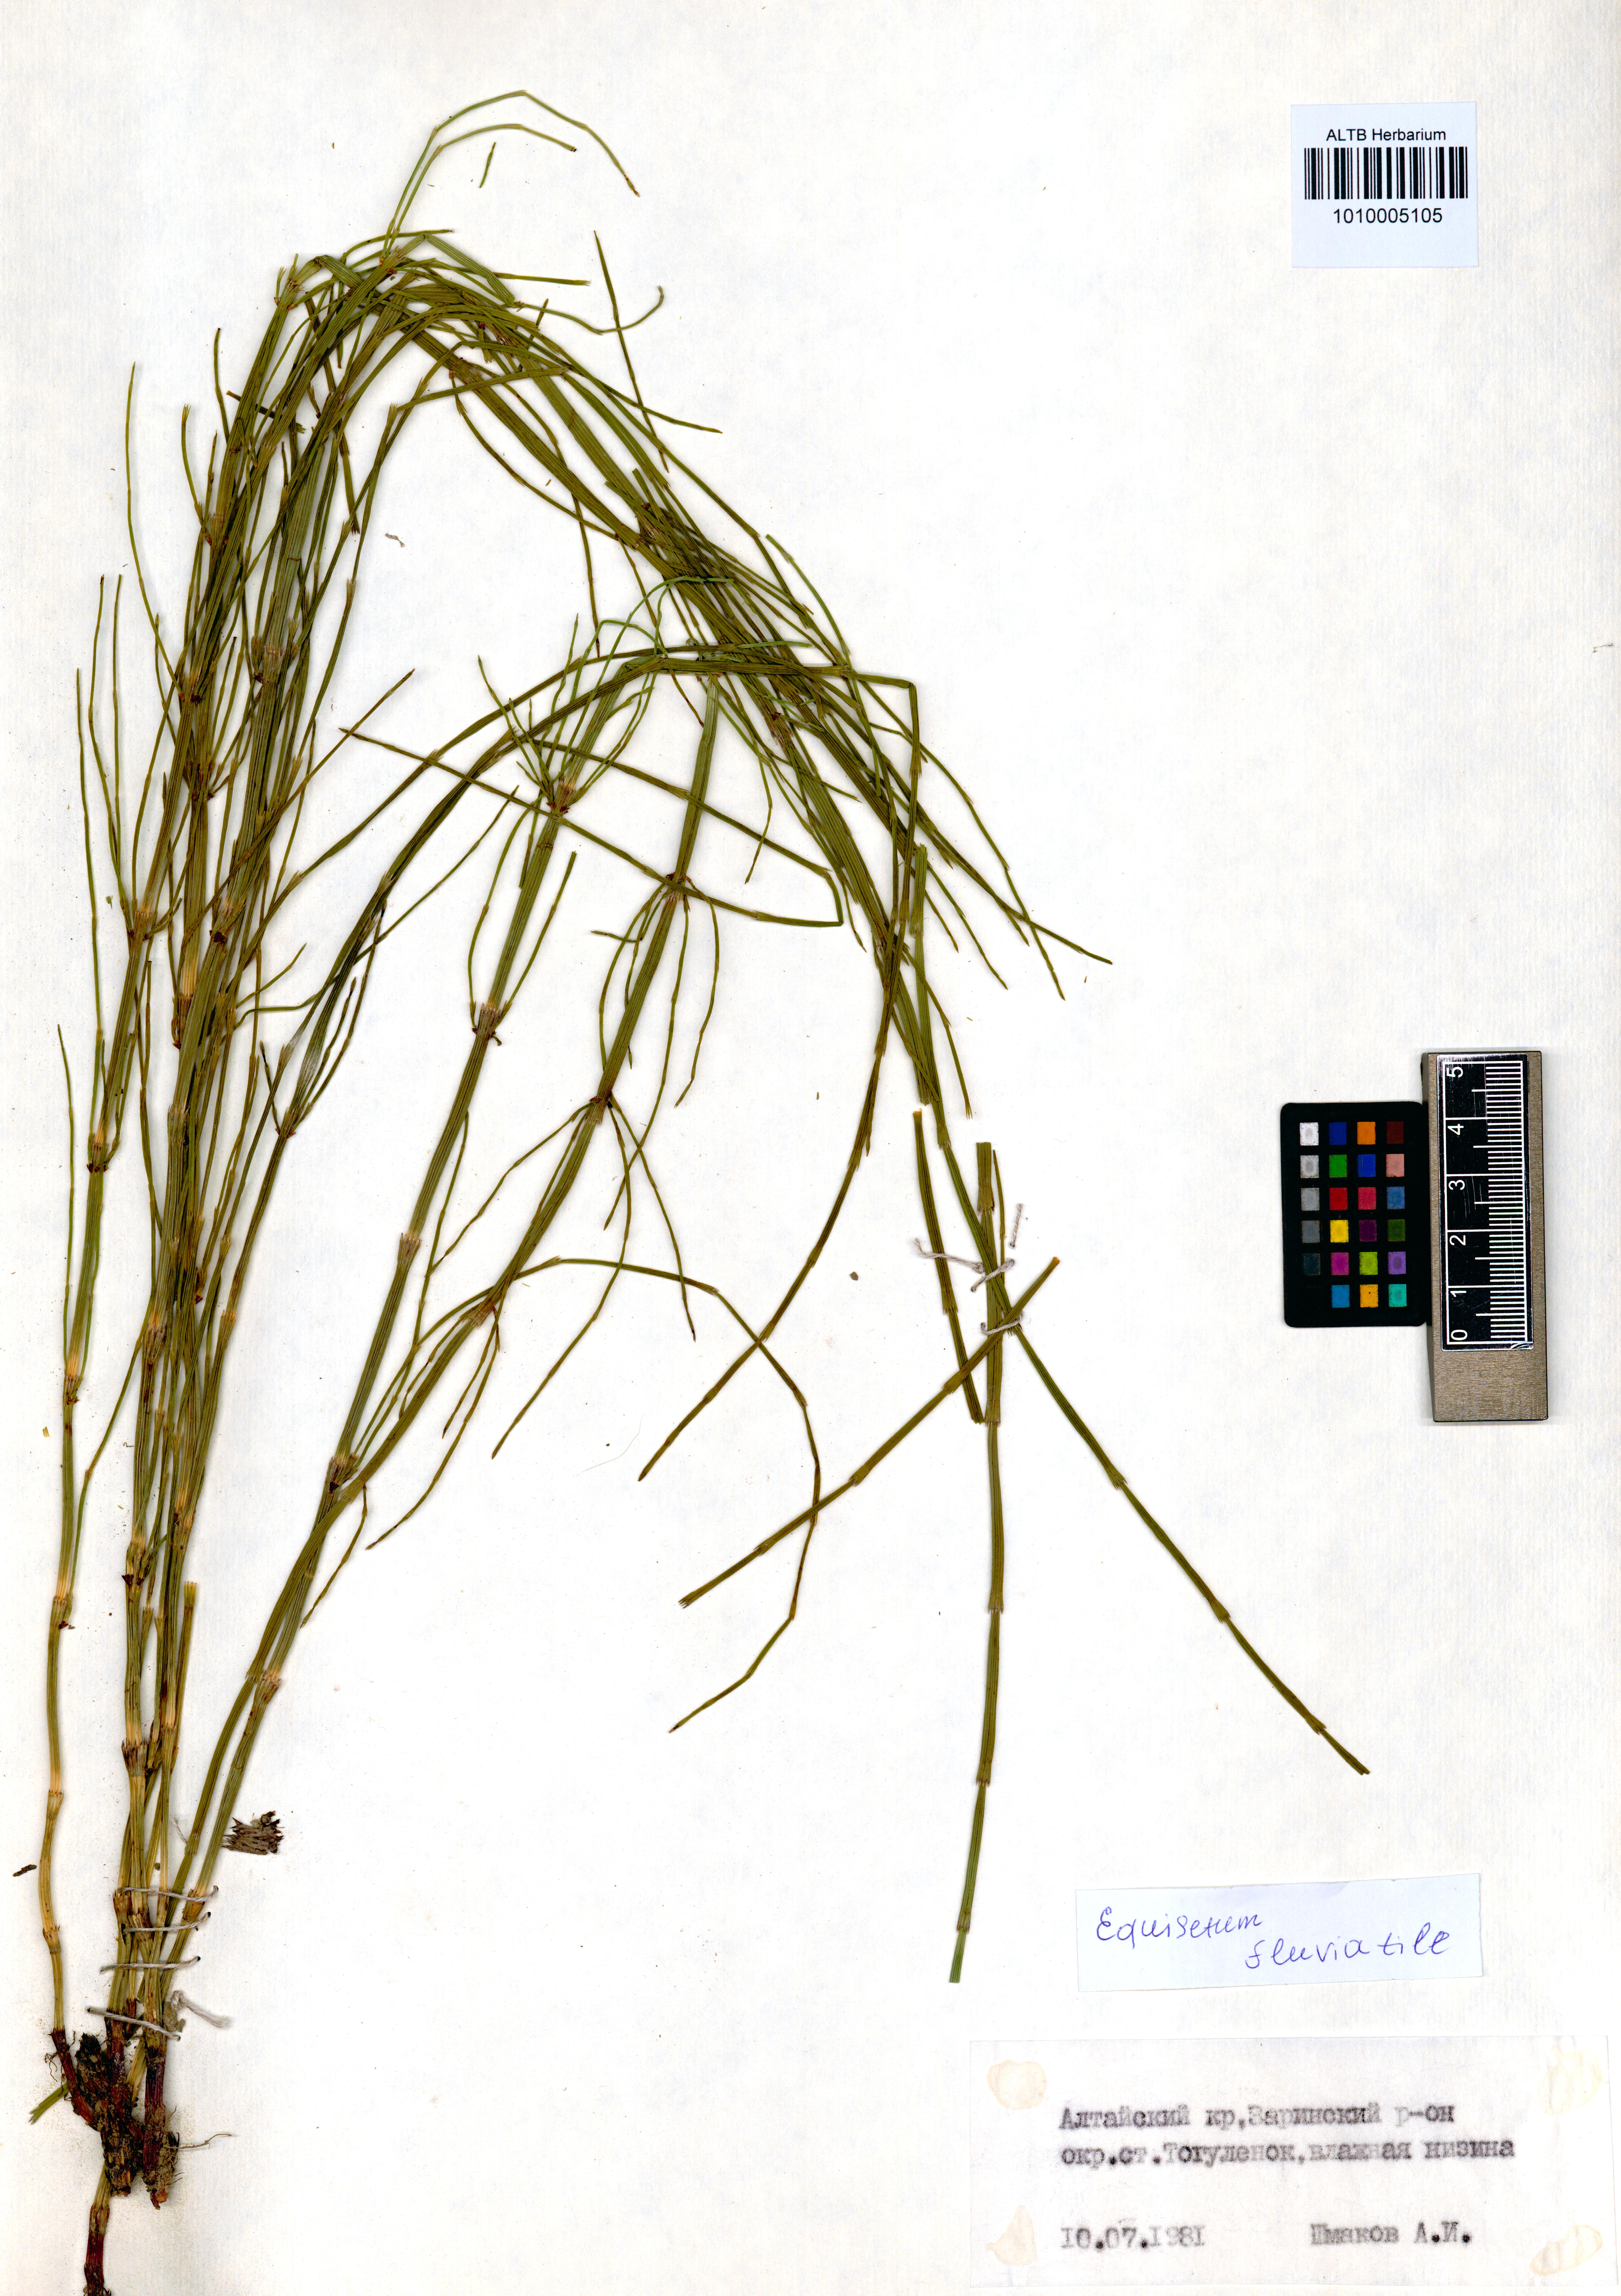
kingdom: Plantae
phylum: Tracheophyta
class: Polypodiopsida
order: Equisetales
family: Equisetaceae
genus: Equisetum
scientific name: Equisetum fluviatile
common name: Water horsetail
